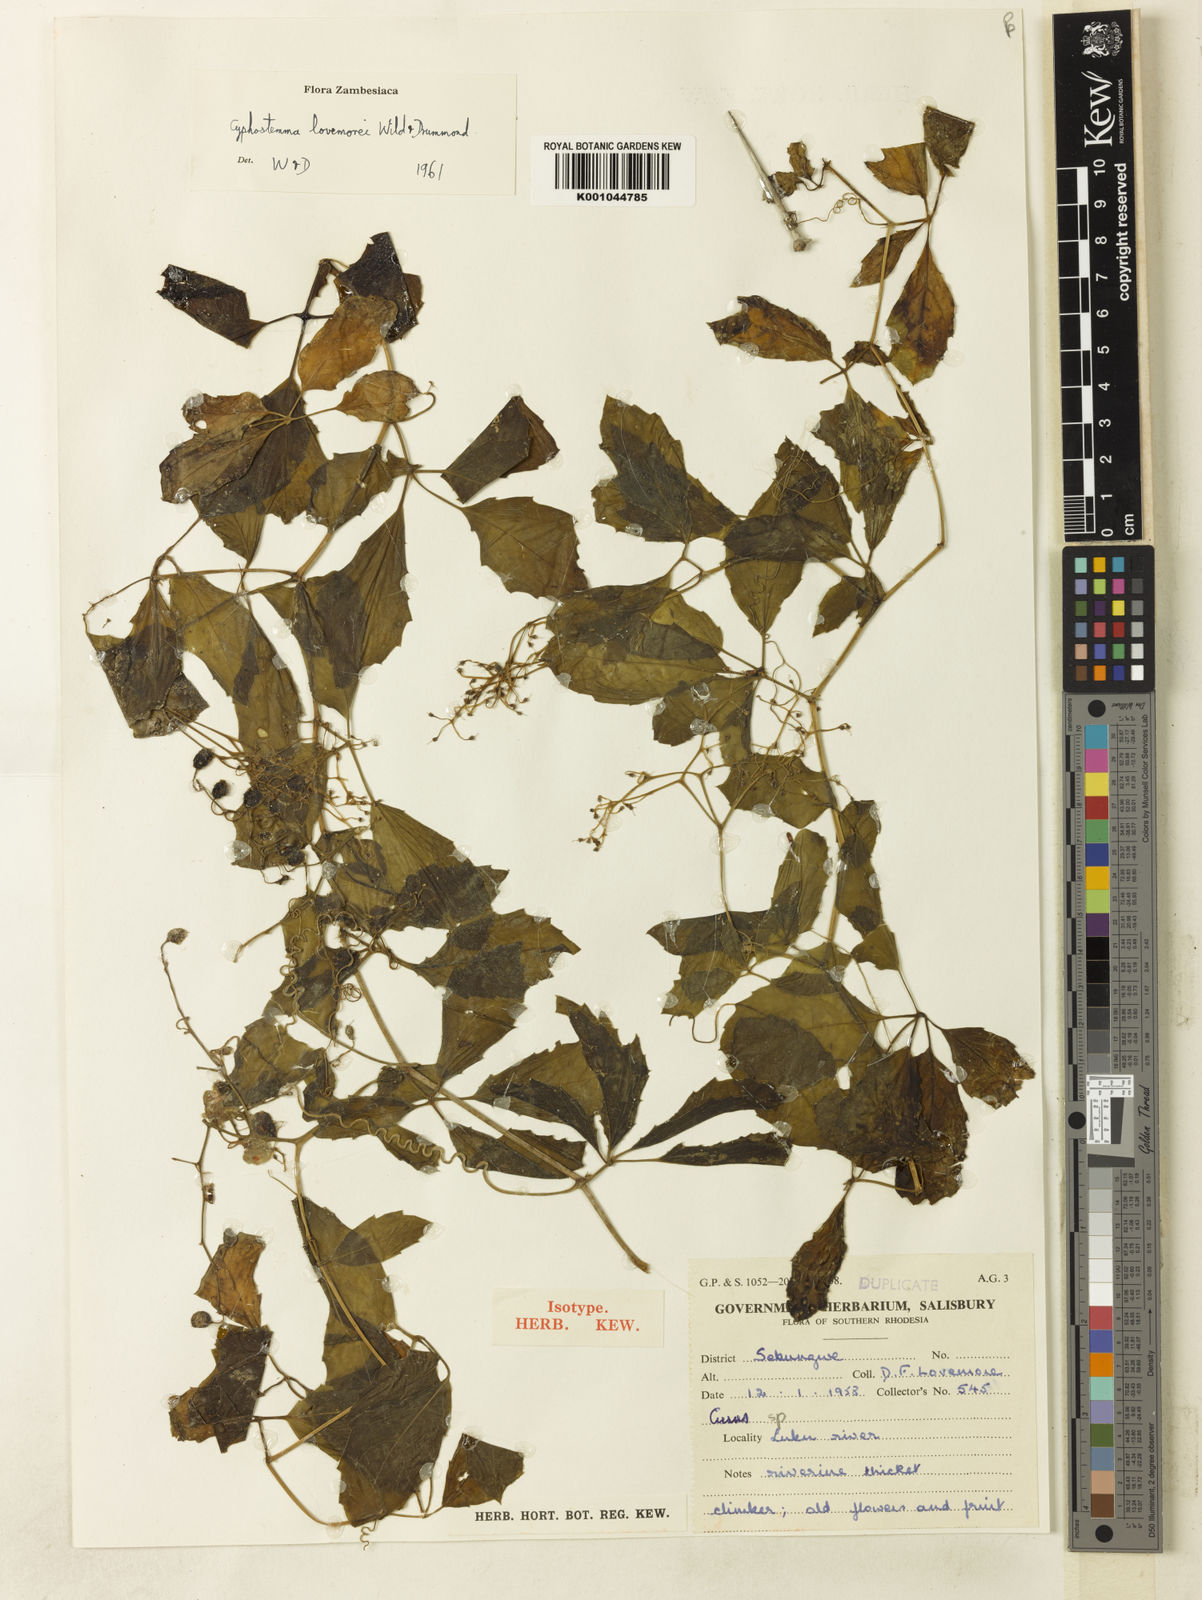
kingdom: Plantae
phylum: Tracheophyta
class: Magnoliopsida
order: Vitales
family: Vitaceae
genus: Cyphostemma
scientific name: Cyphostemma lovemorei
